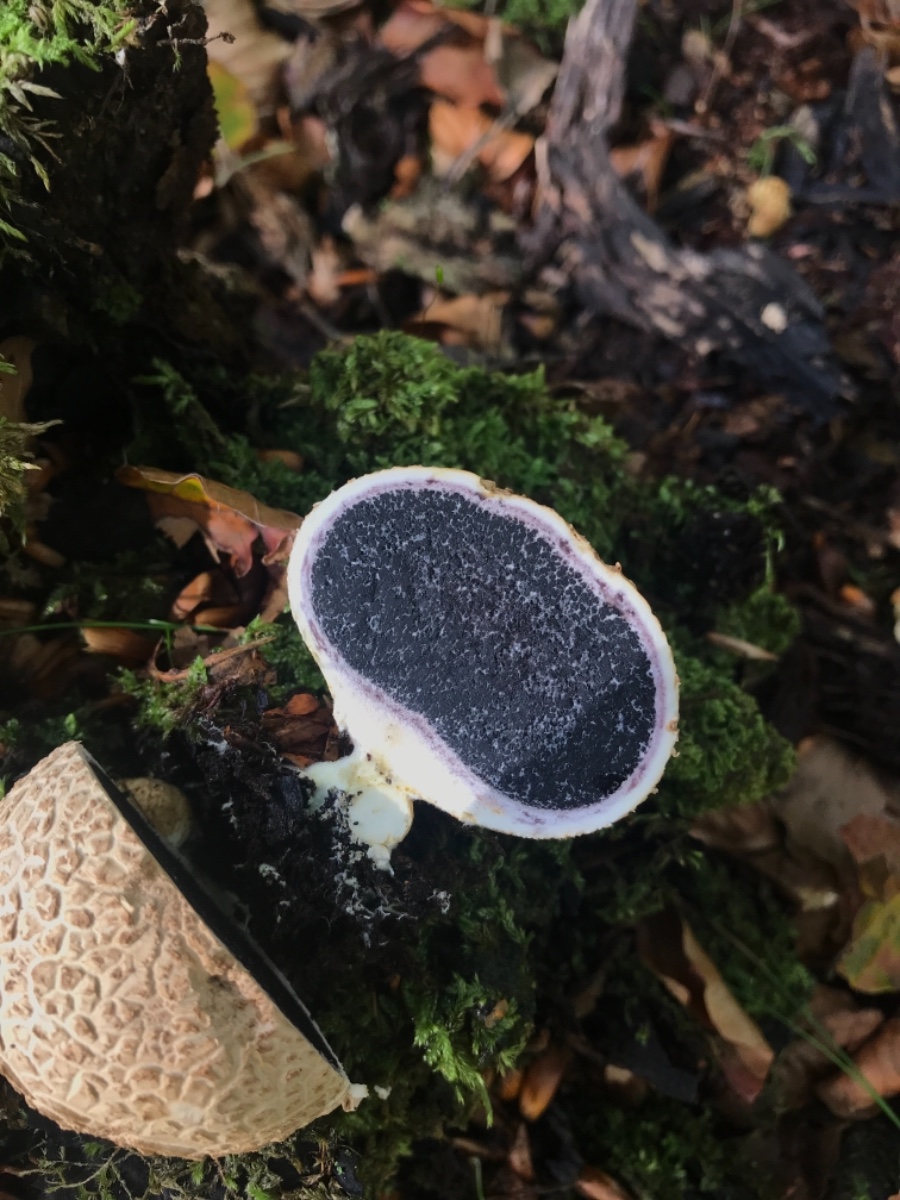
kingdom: Fungi
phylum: Basidiomycota
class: Agaricomycetes
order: Boletales
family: Sclerodermataceae
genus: Scleroderma
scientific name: Scleroderma citrinum
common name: almindelig bruskbold
